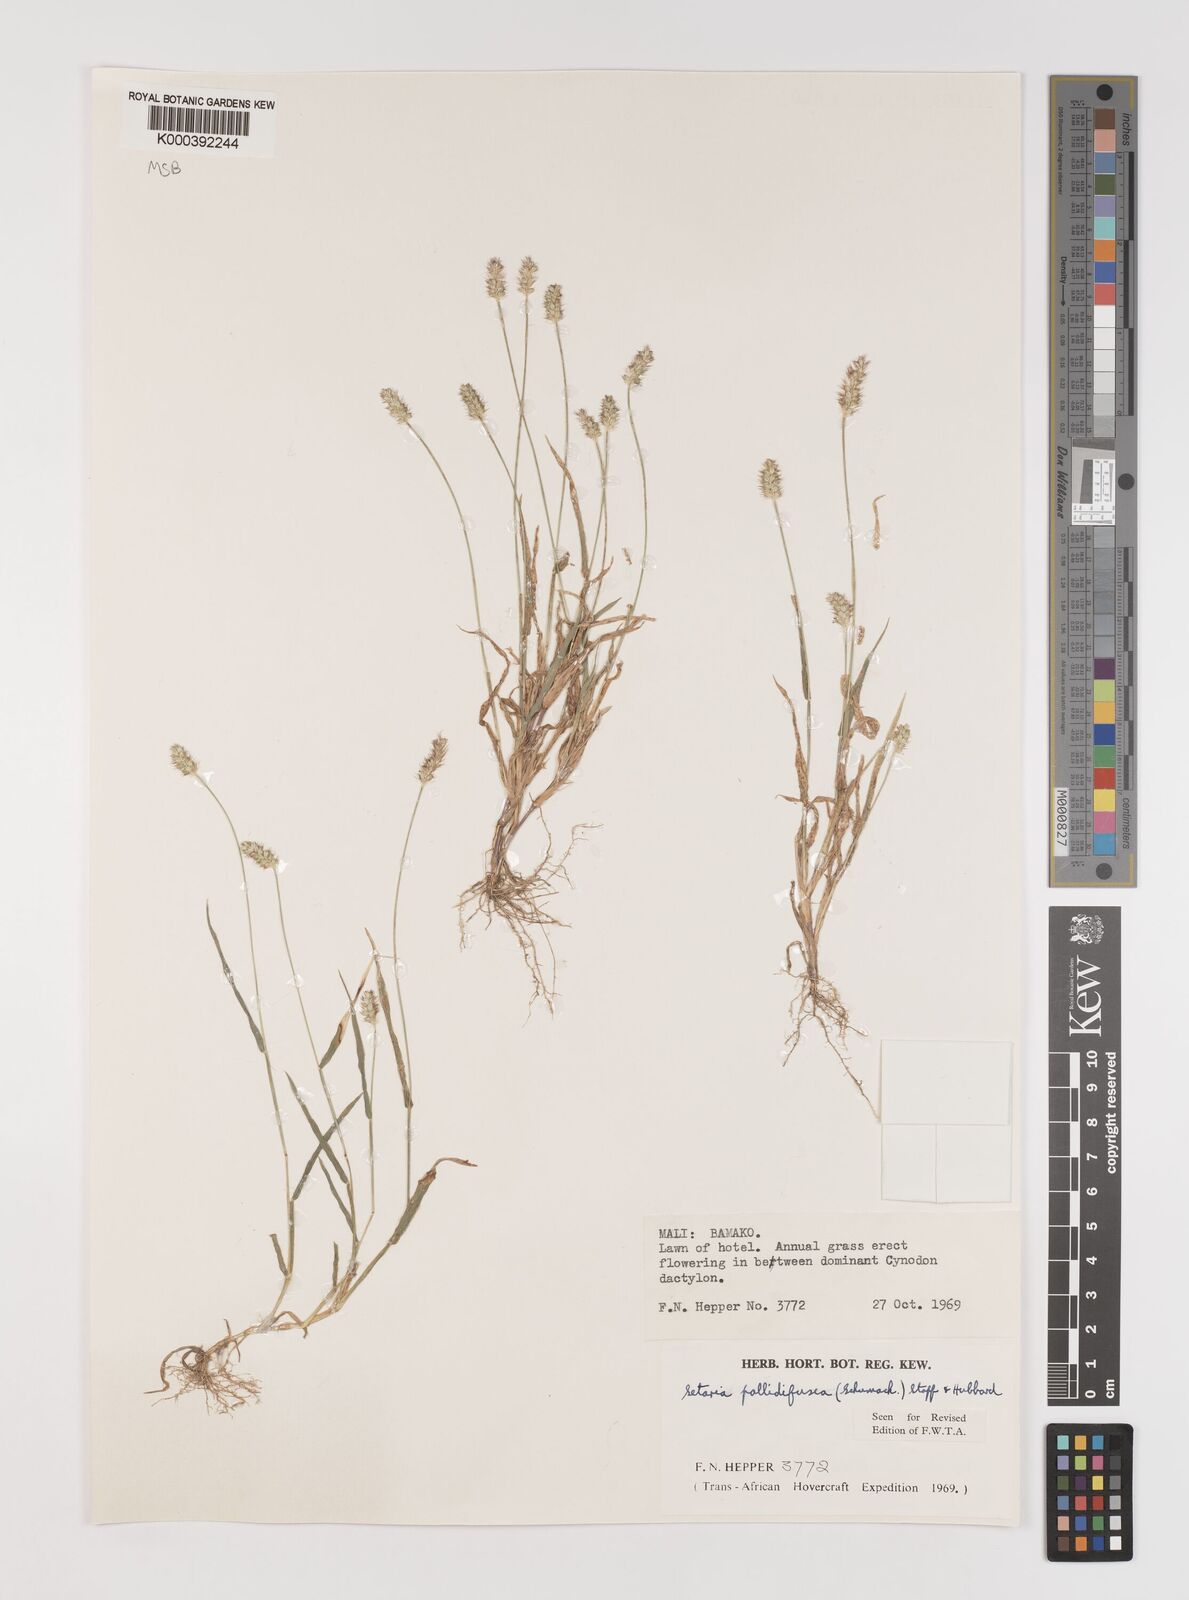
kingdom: Plantae
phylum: Tracheophyta
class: Liliopsida
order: Poales
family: Poaceae
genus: Setaria
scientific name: Setaria pumila
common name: Yellow bristle-grass
